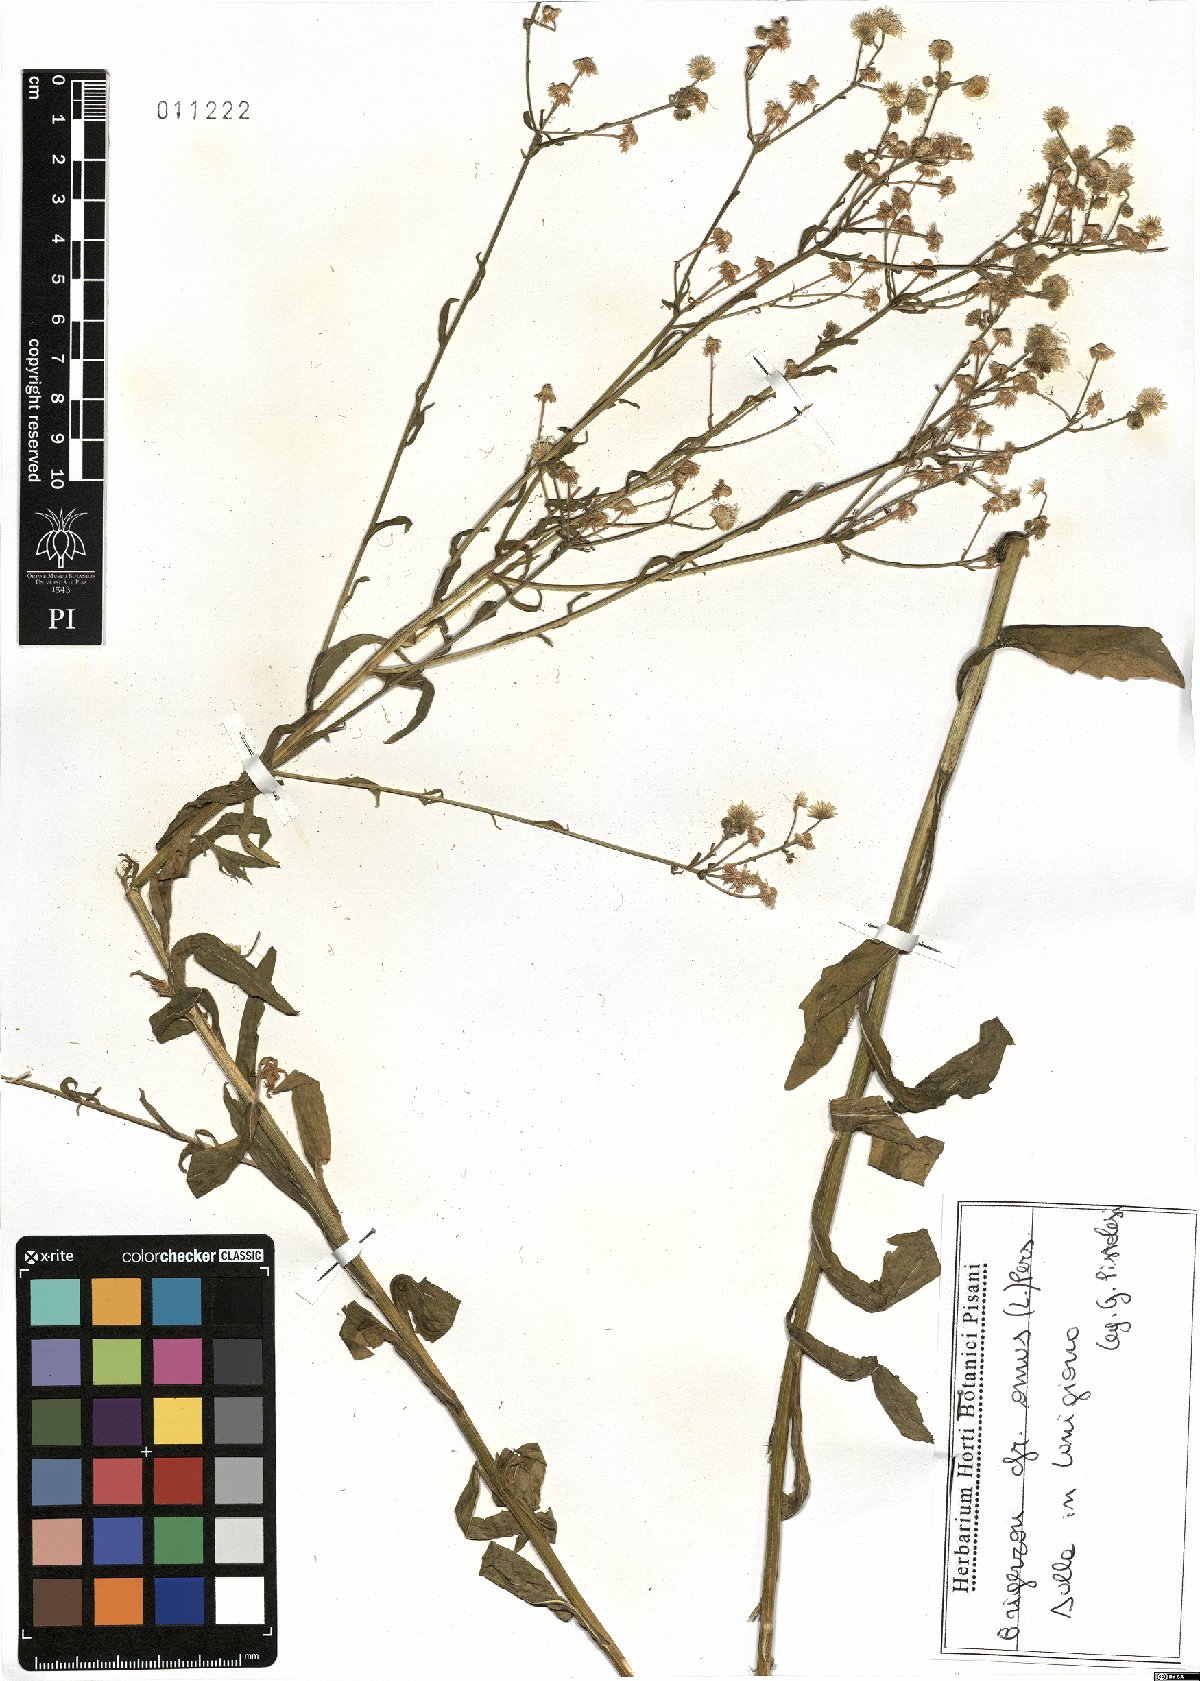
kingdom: Plantae
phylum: Tracheophyta
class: Magnoliopsida
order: Asterales
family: Asteraceae
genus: Erigeron
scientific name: Erigeron annuus
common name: Tall fleabane
